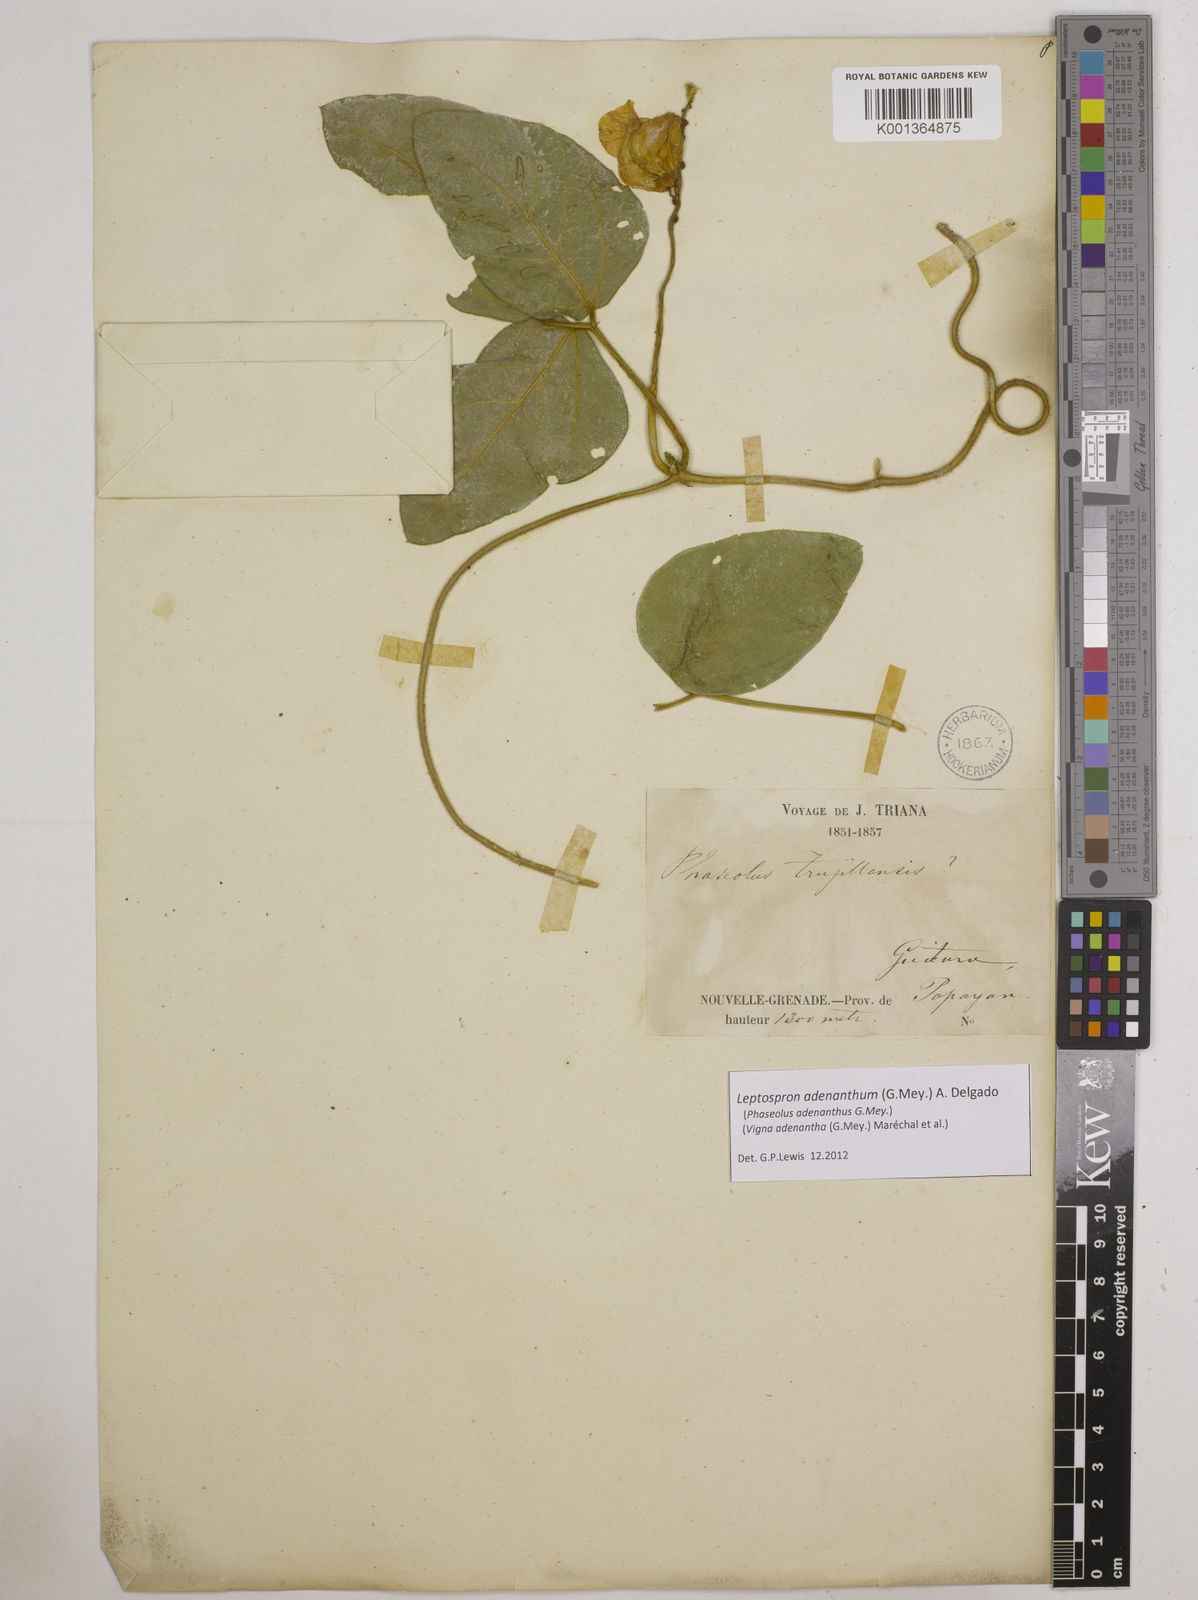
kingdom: Plantae
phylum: Tracheophyta
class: Magnoliopsida
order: Fabales
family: Fabaceae
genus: Leptospron
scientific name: Leptospron adenanthum
